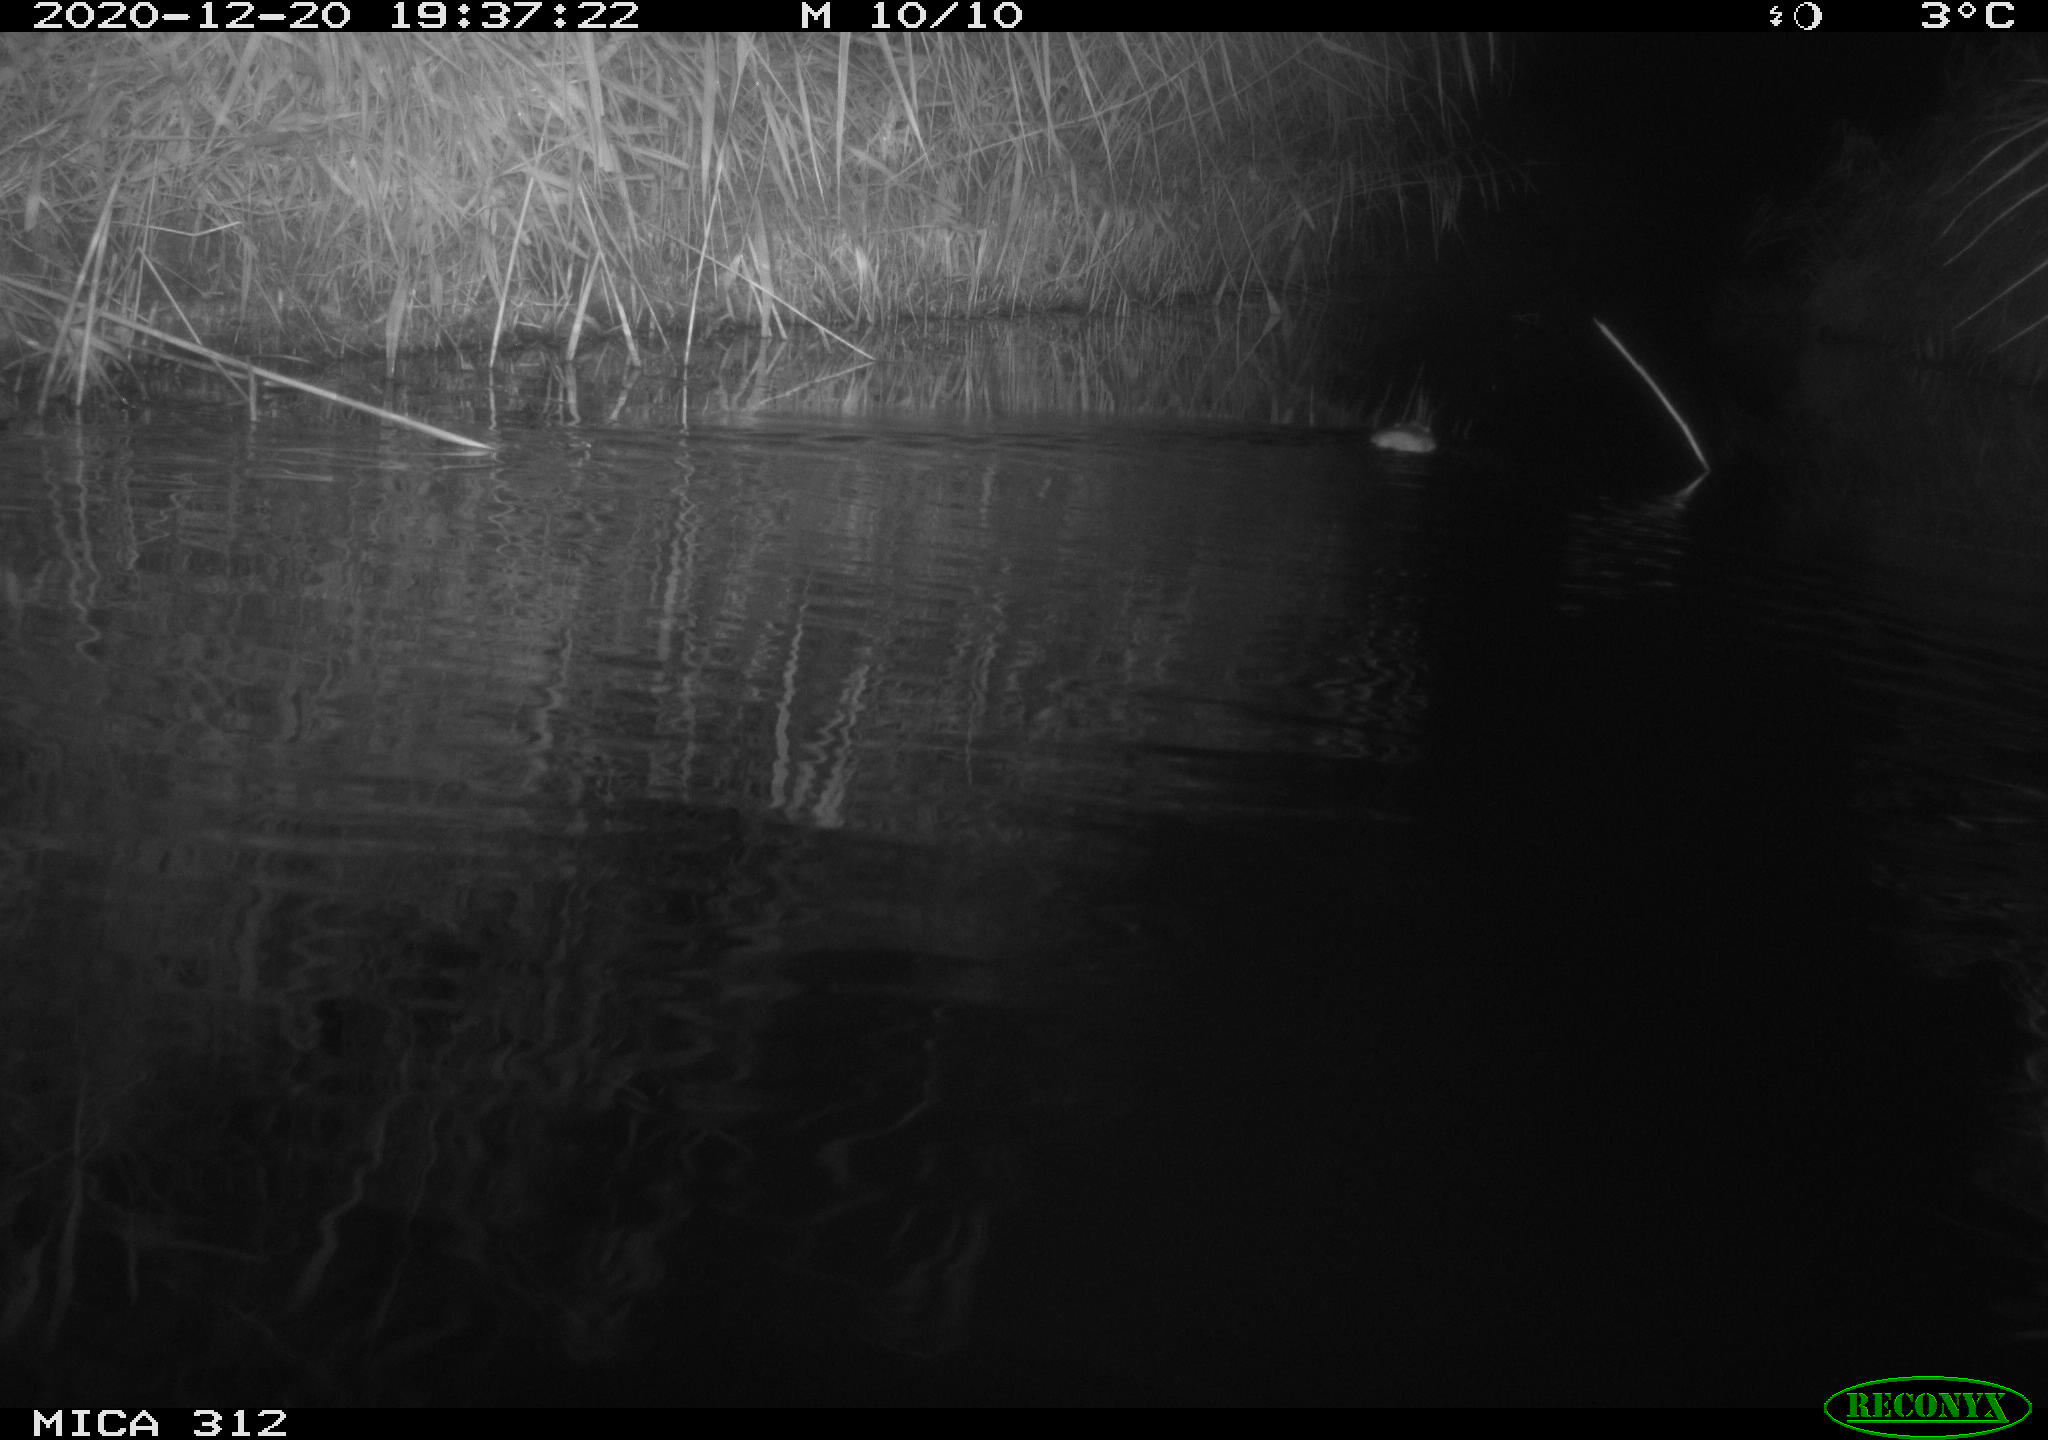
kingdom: Animalia
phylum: Chordata
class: Mammalia
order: Rodentia
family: Muridae
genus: Rattus
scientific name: Rattus norvegicus
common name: Brown rat
